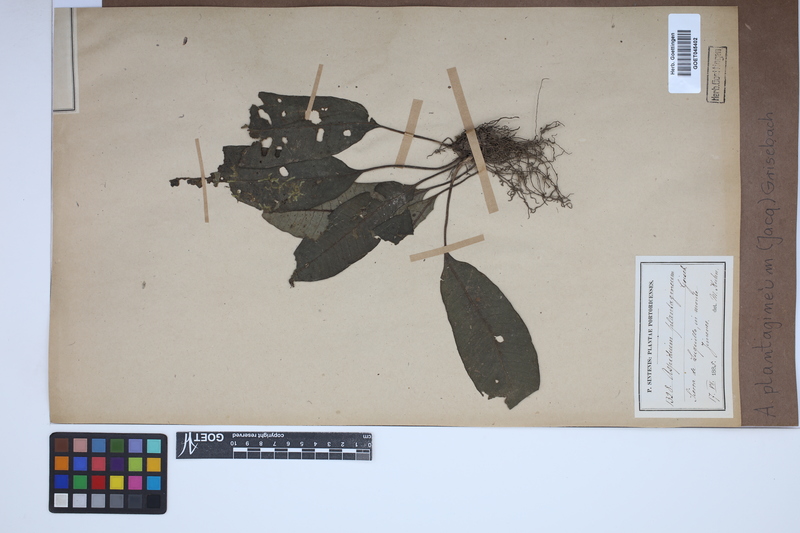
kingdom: Plantae
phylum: Tracheophyta
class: Polypodiopsida
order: Polypodiales
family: Lomariopsidaceae
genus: Dracoglossum
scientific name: Dracoglossum plantagineum
